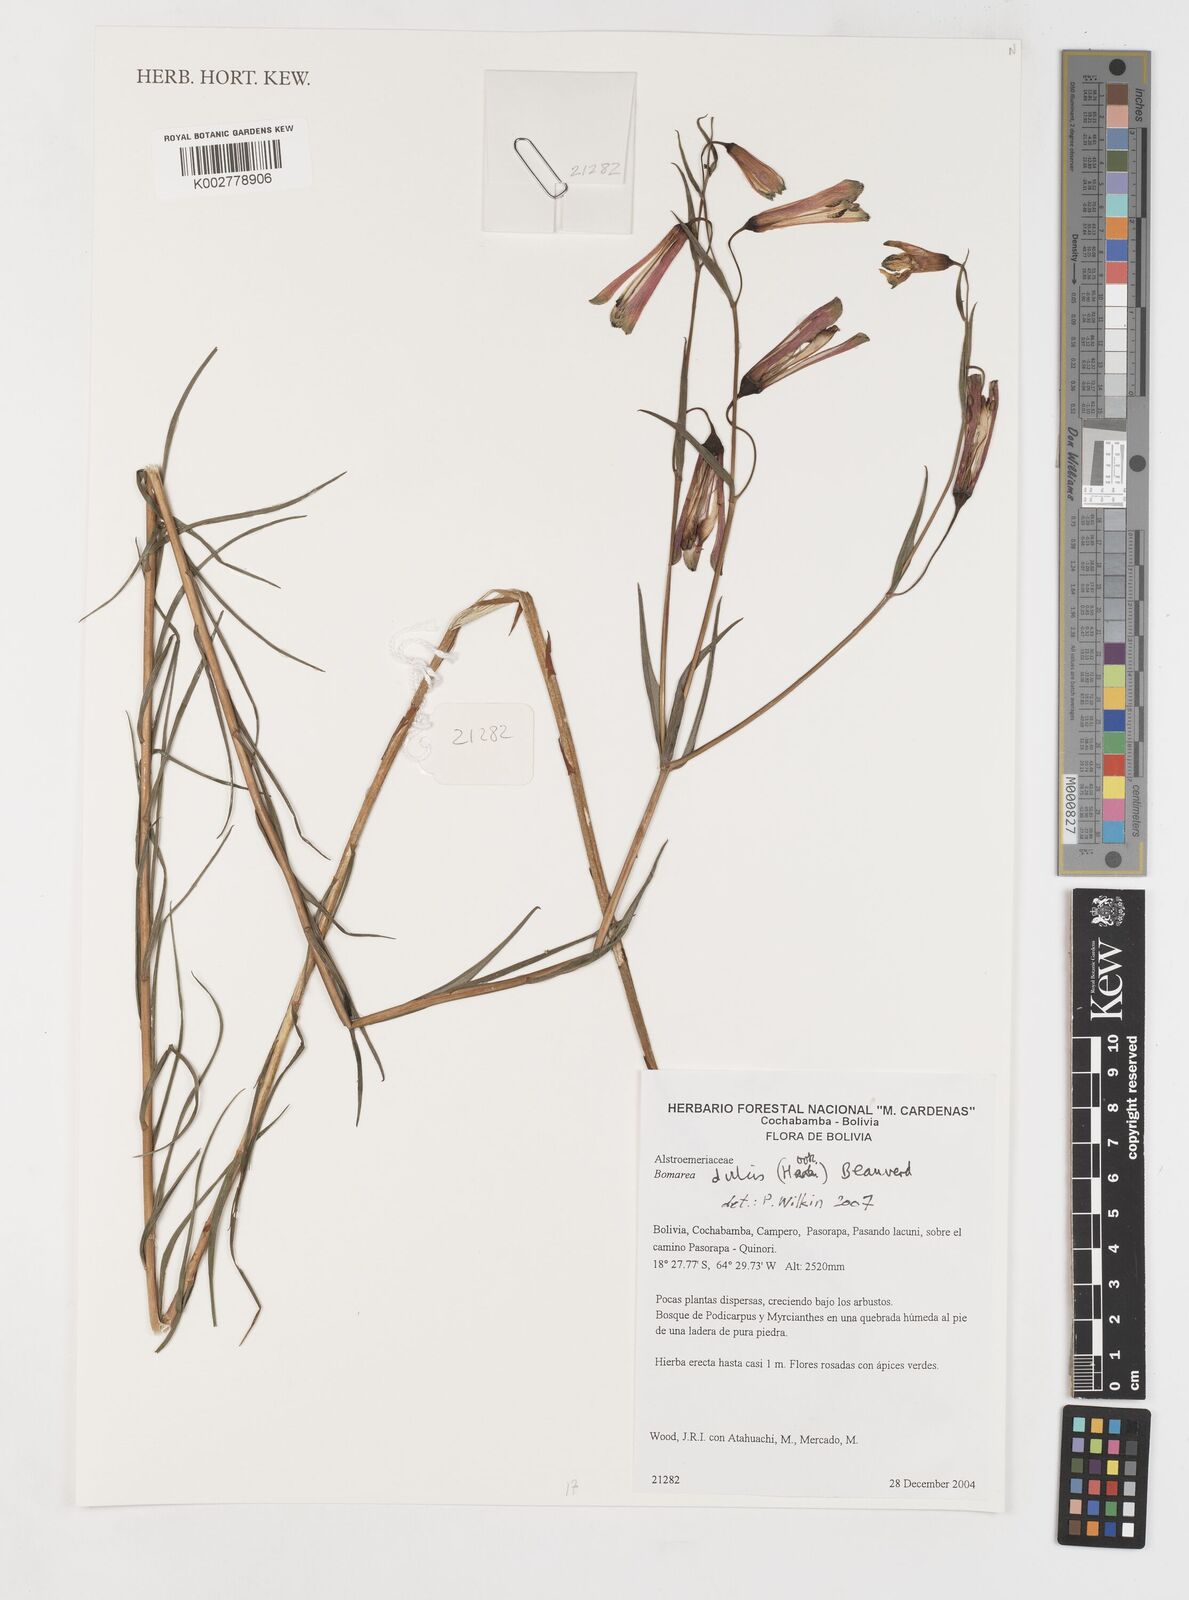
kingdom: Plantae
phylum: Tracheophyta
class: Liliopsida
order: Liliales
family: Alstroemeriaceae
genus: Bomarea
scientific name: Bomarea dulcis
